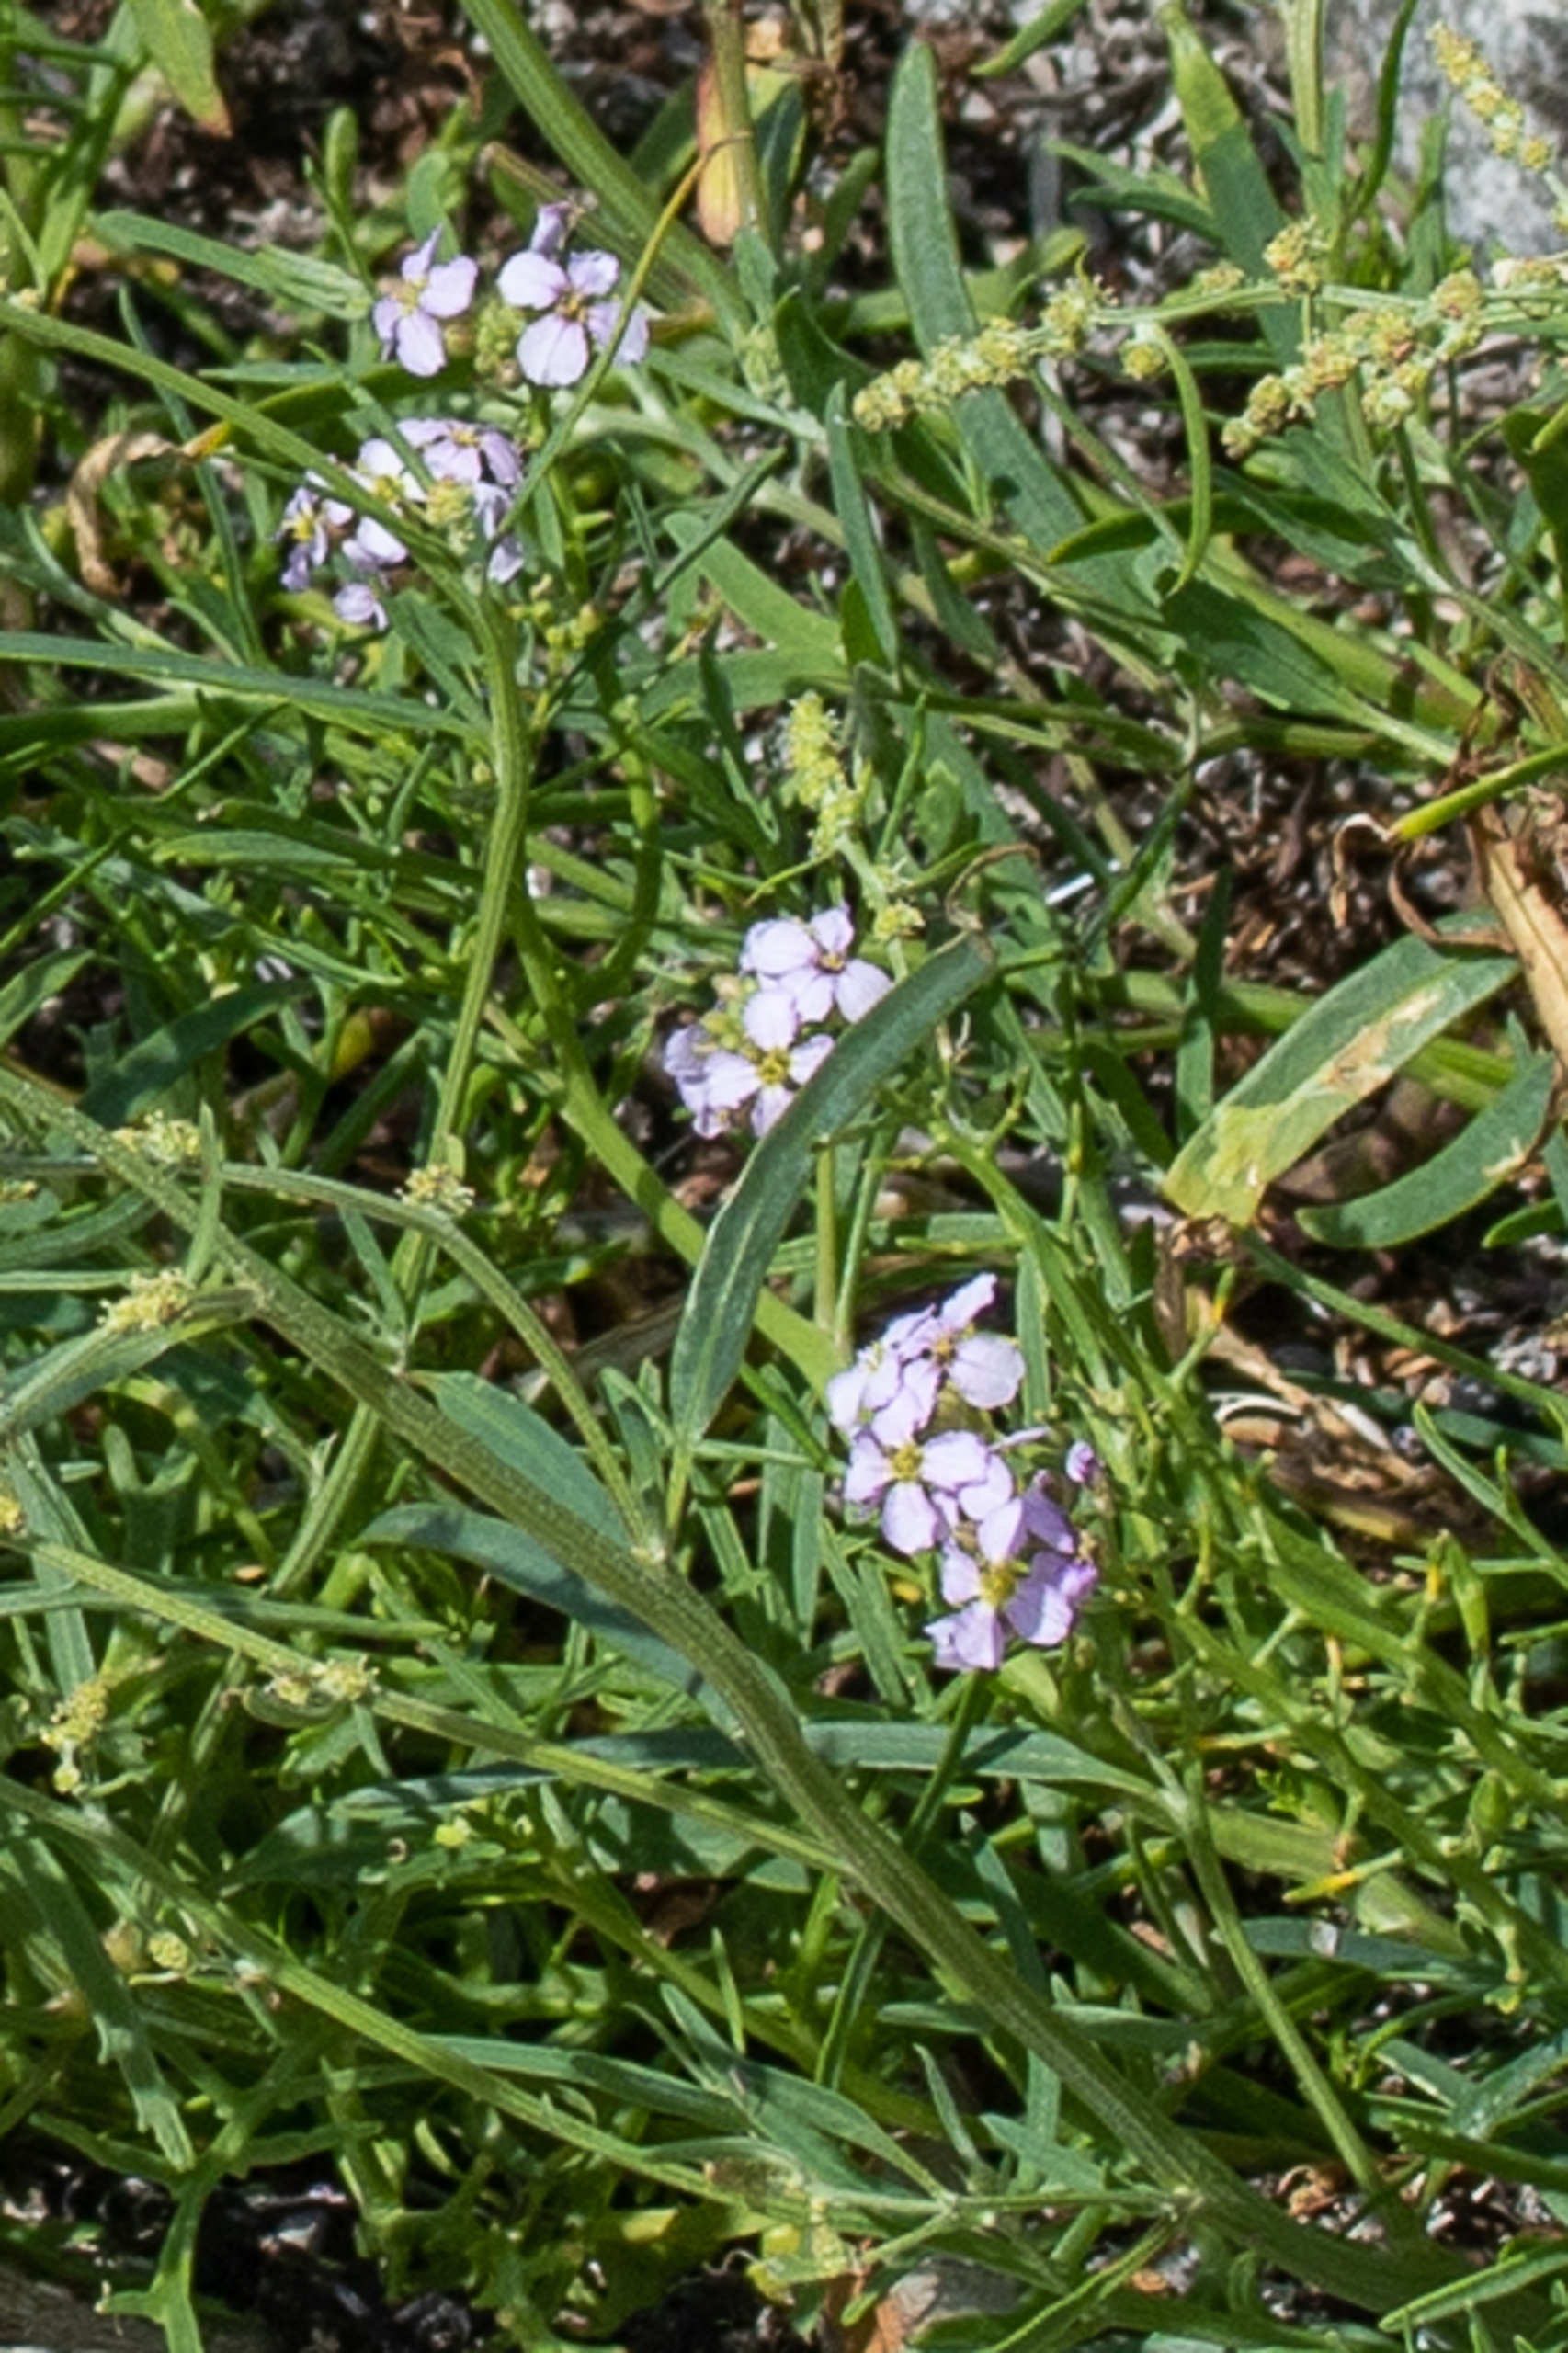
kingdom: Plantae
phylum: Tracheophyta
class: Magnoliopsida
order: Brassicales
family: Brassicaceae
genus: Cakile
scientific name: Cakile maritima
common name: Strandsennep
